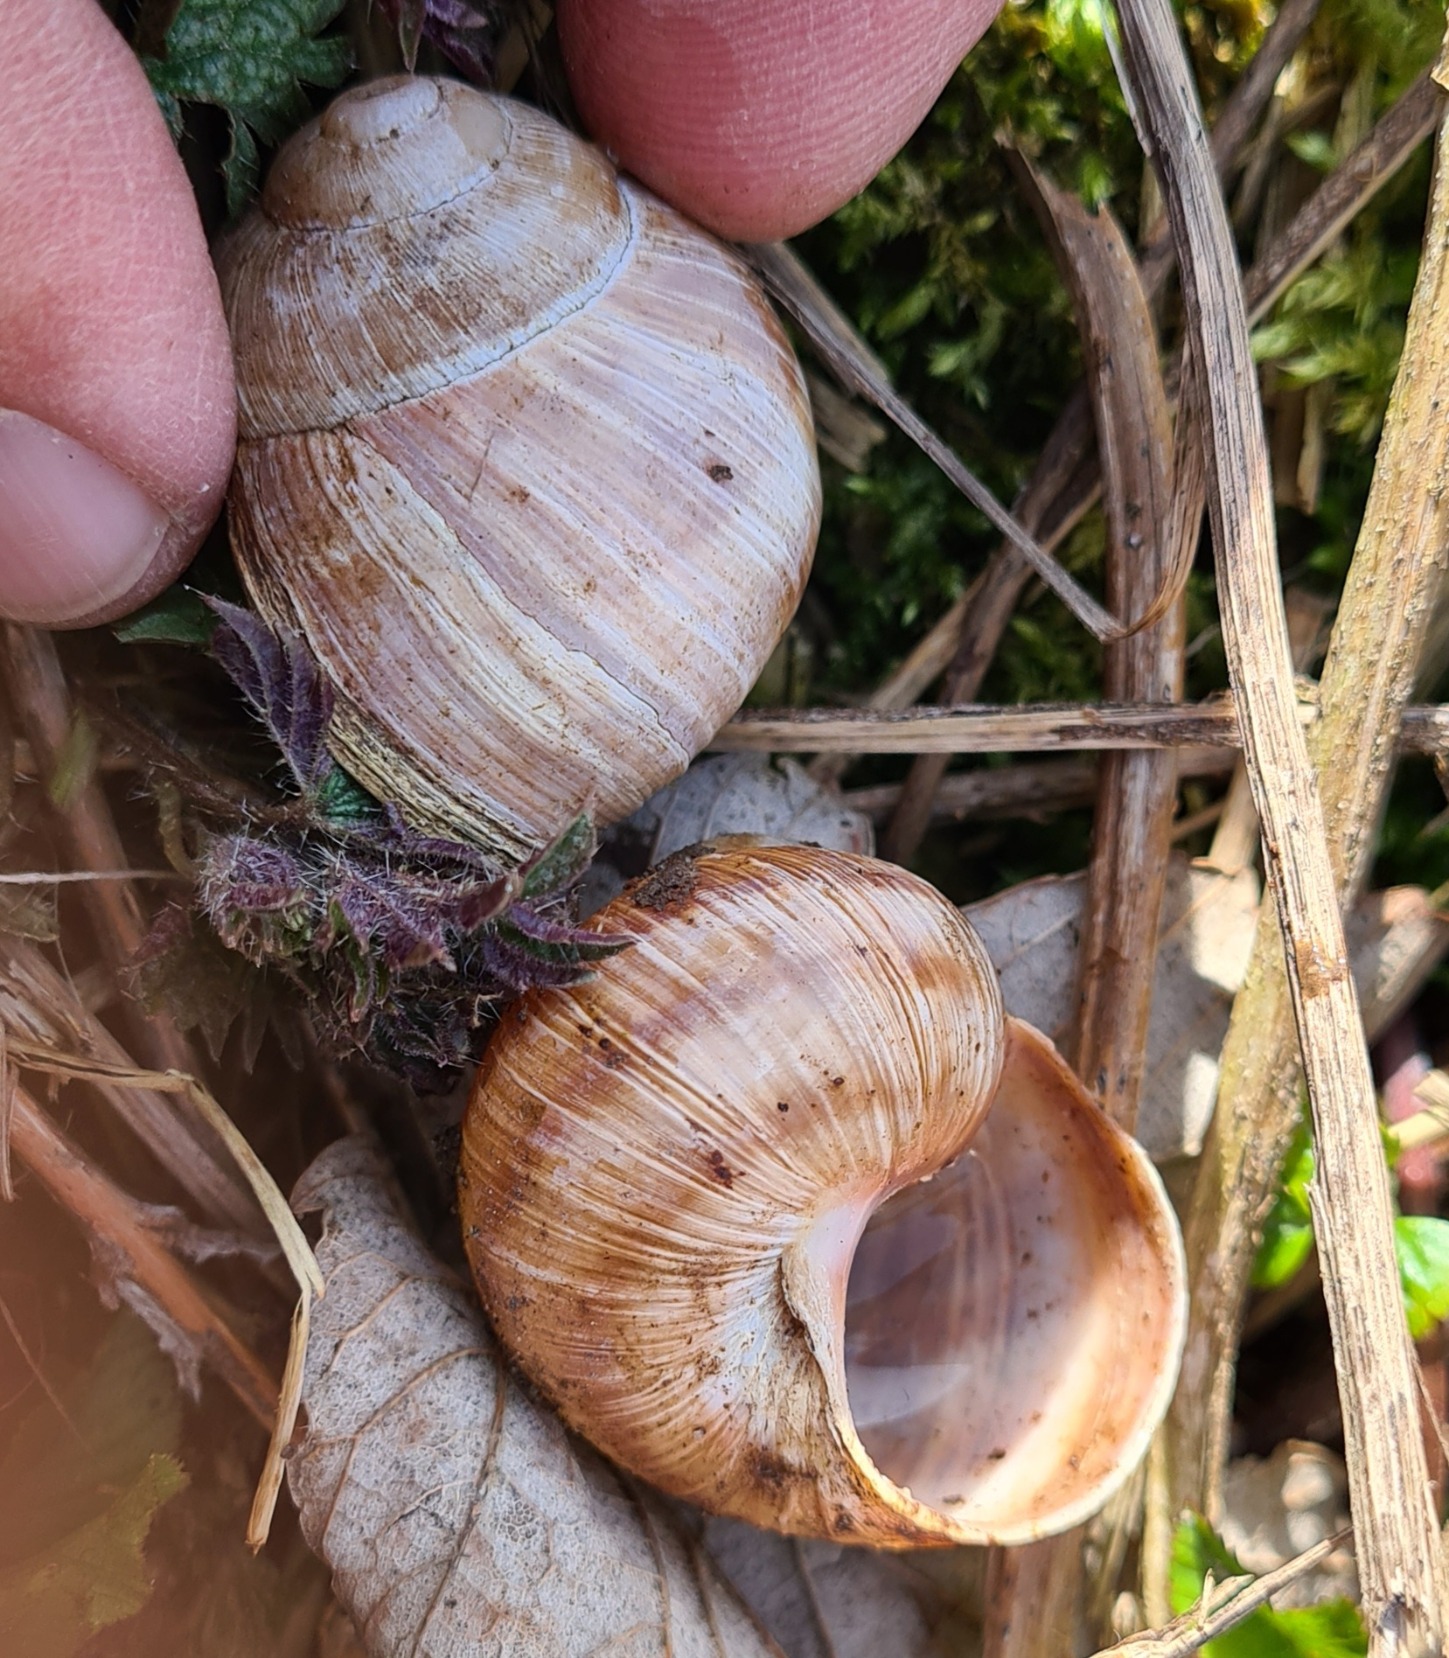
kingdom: Animalia
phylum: Mollusca
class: Gastropoda
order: Stylommatophora
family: Helicidae
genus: Helix
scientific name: Helix pomatia
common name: Vinbjergsnegl
